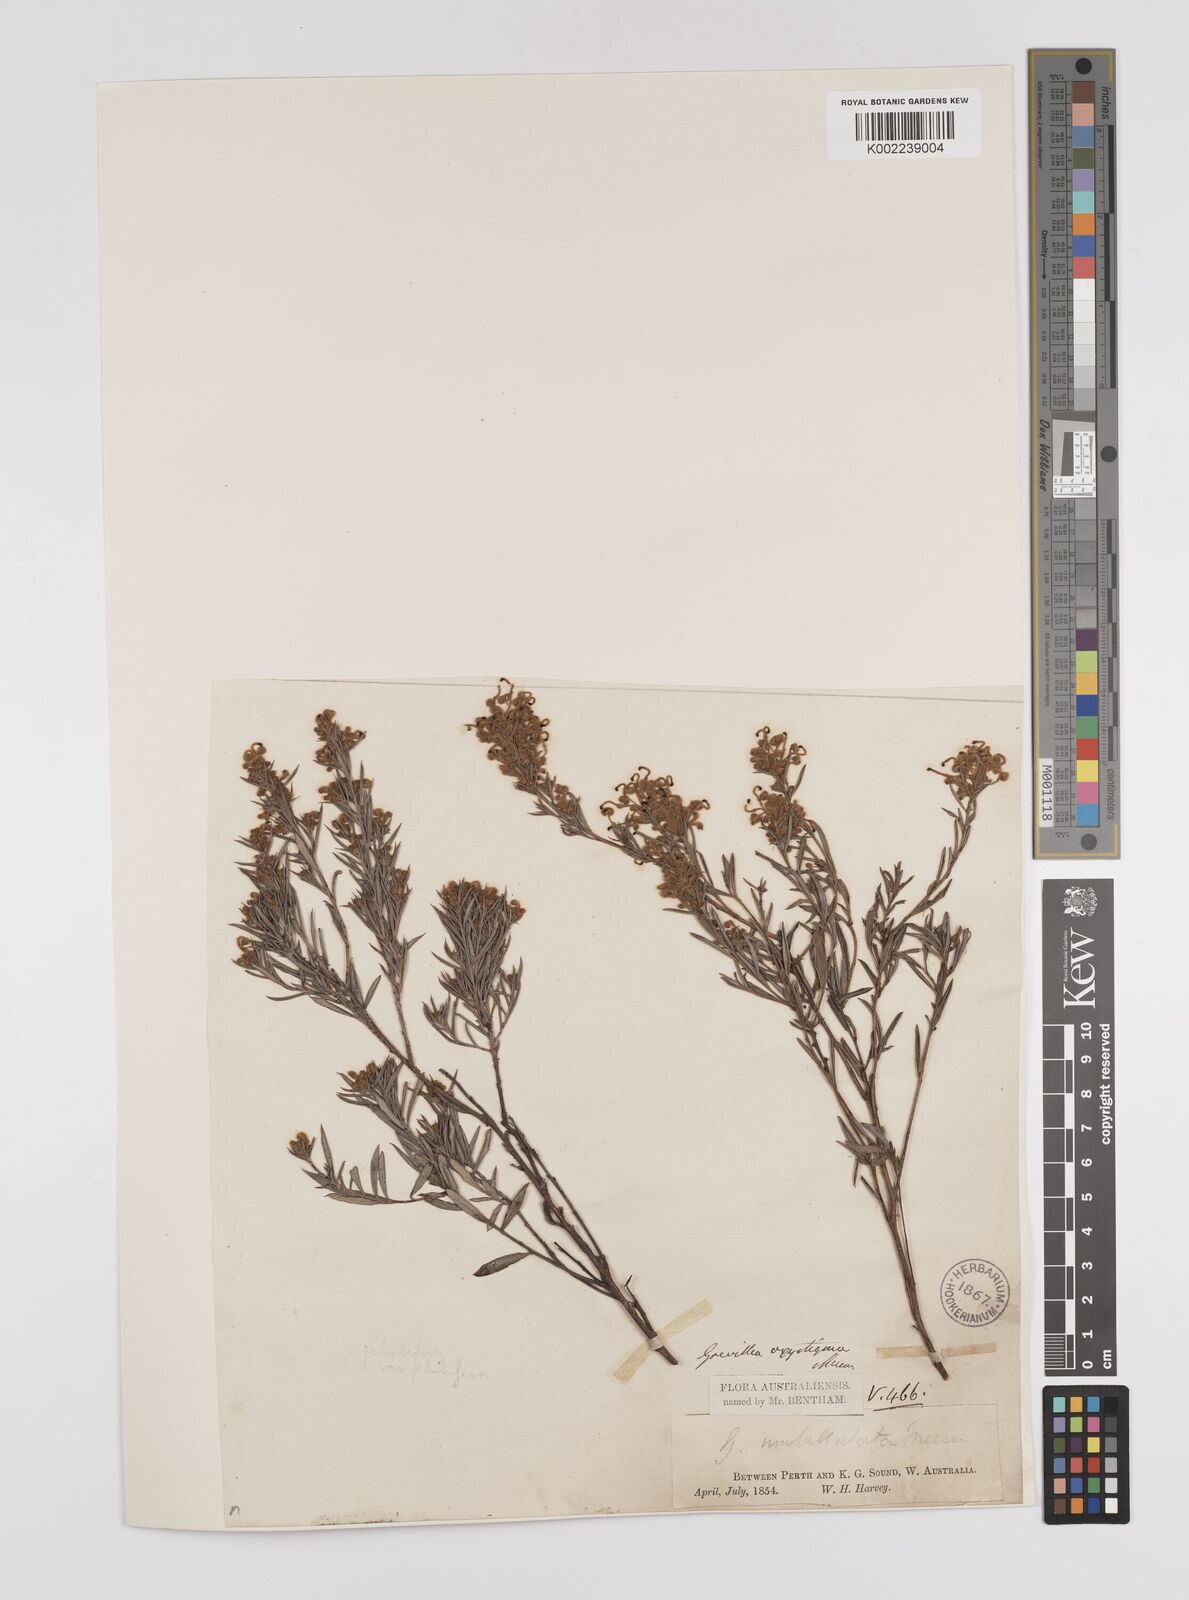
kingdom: Plantae
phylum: Tracheophyta
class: Magnoliopsida
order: Proteales
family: Proteaceae
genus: Grevillea
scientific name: Grevillea pilulifera
